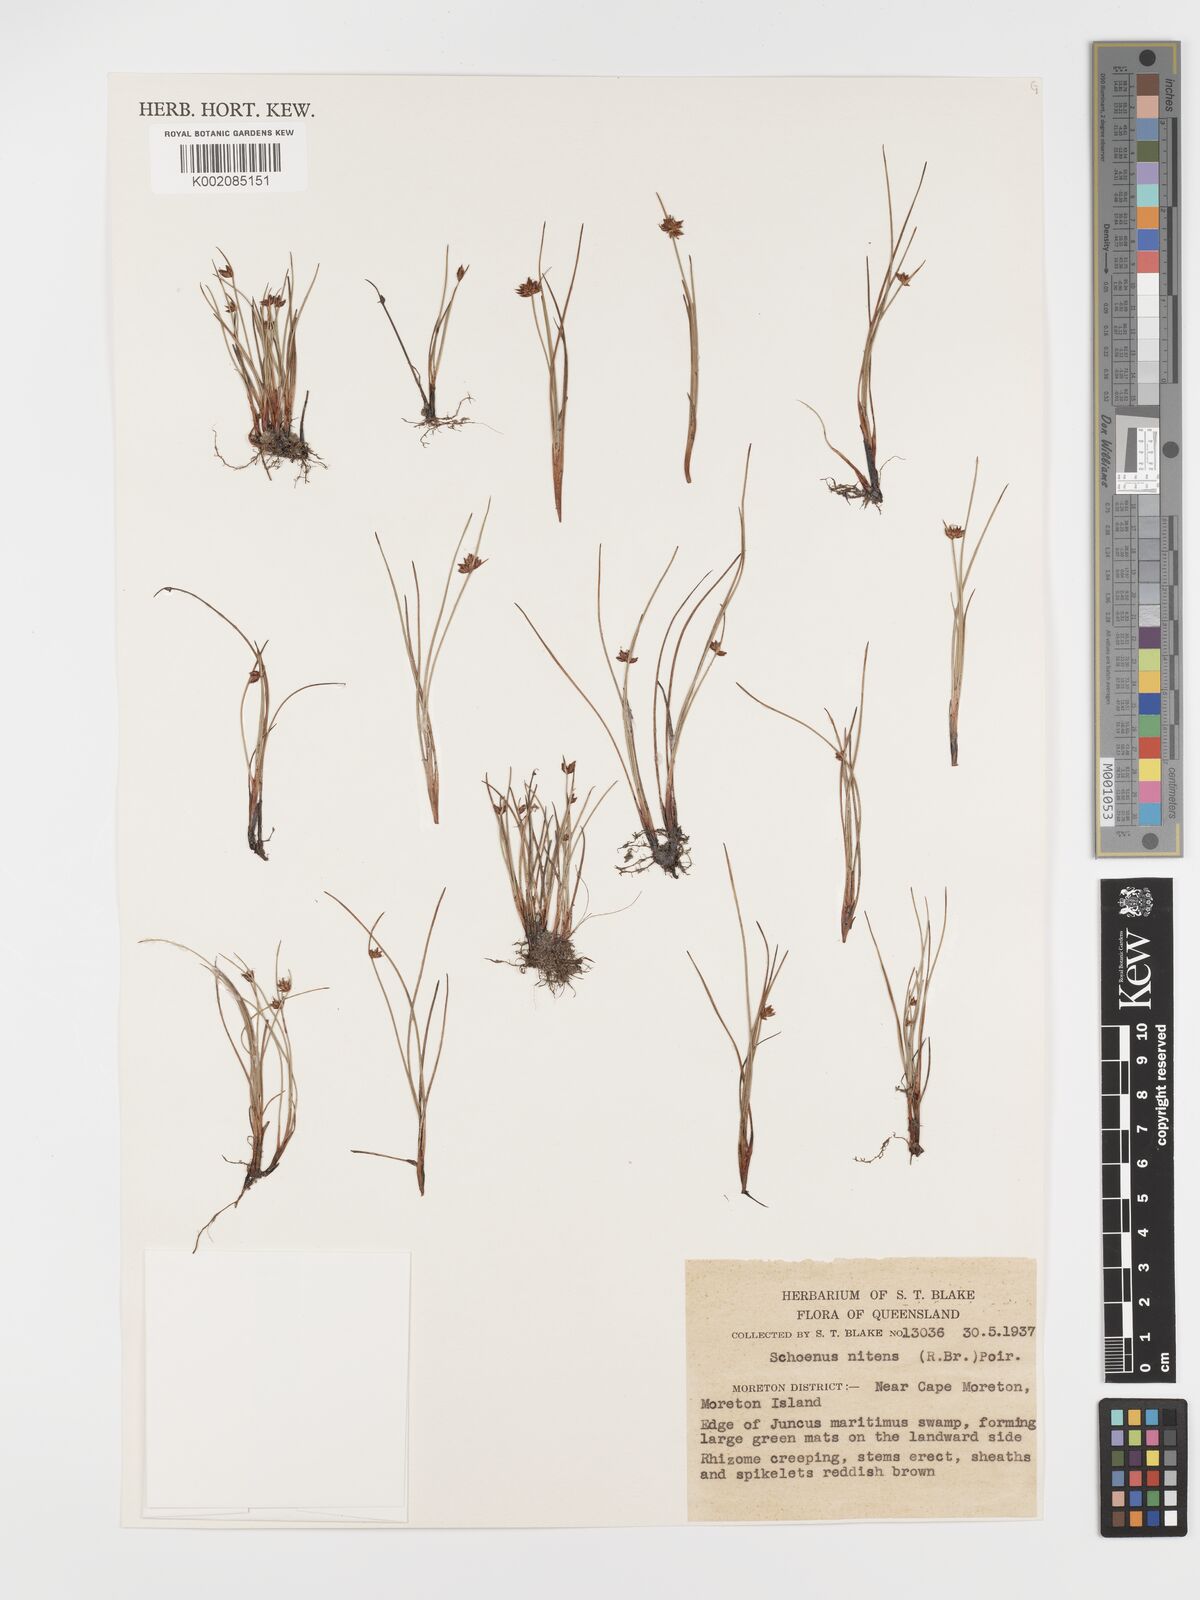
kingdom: Plantae
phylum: Tracheophyta
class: Liliopsida
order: Poales
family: Cyperaceae
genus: Schoenus
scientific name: Schoenus nitens
